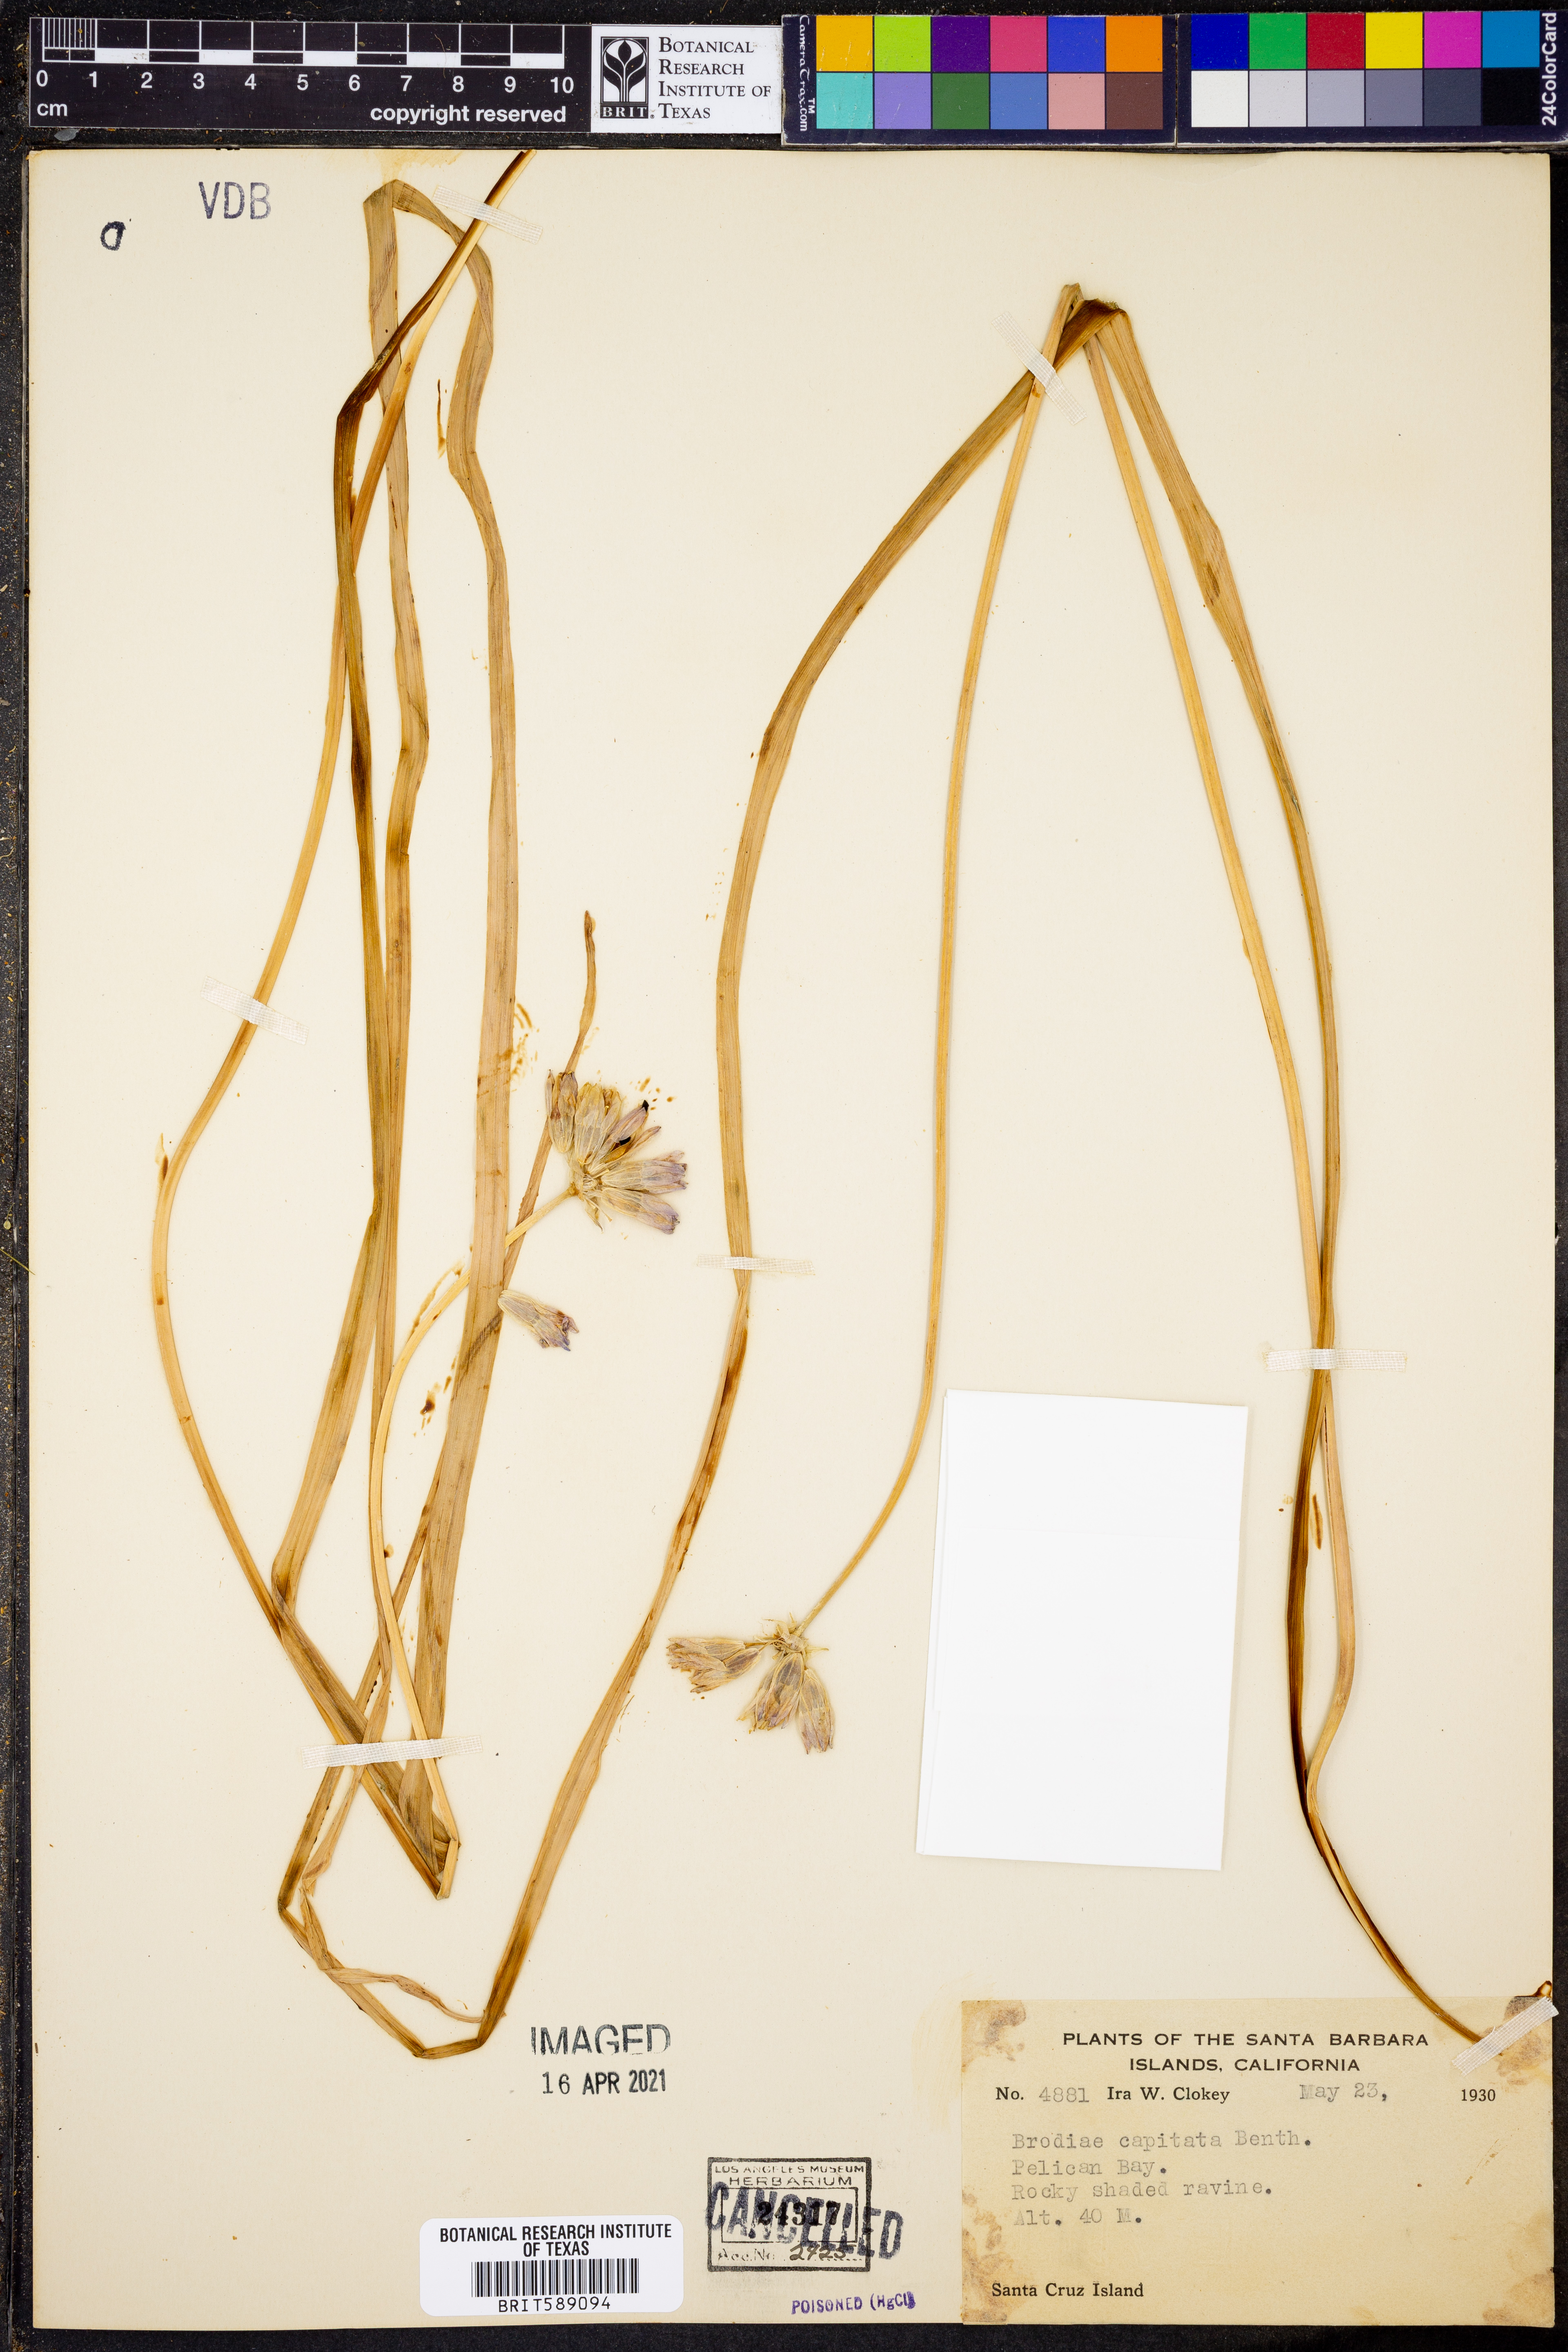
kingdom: Plantae
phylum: Tracheophyta
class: Liliopsida
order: Asparagales
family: Asparagaceae
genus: Dipterostemon
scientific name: Dipterostemon capitatus
